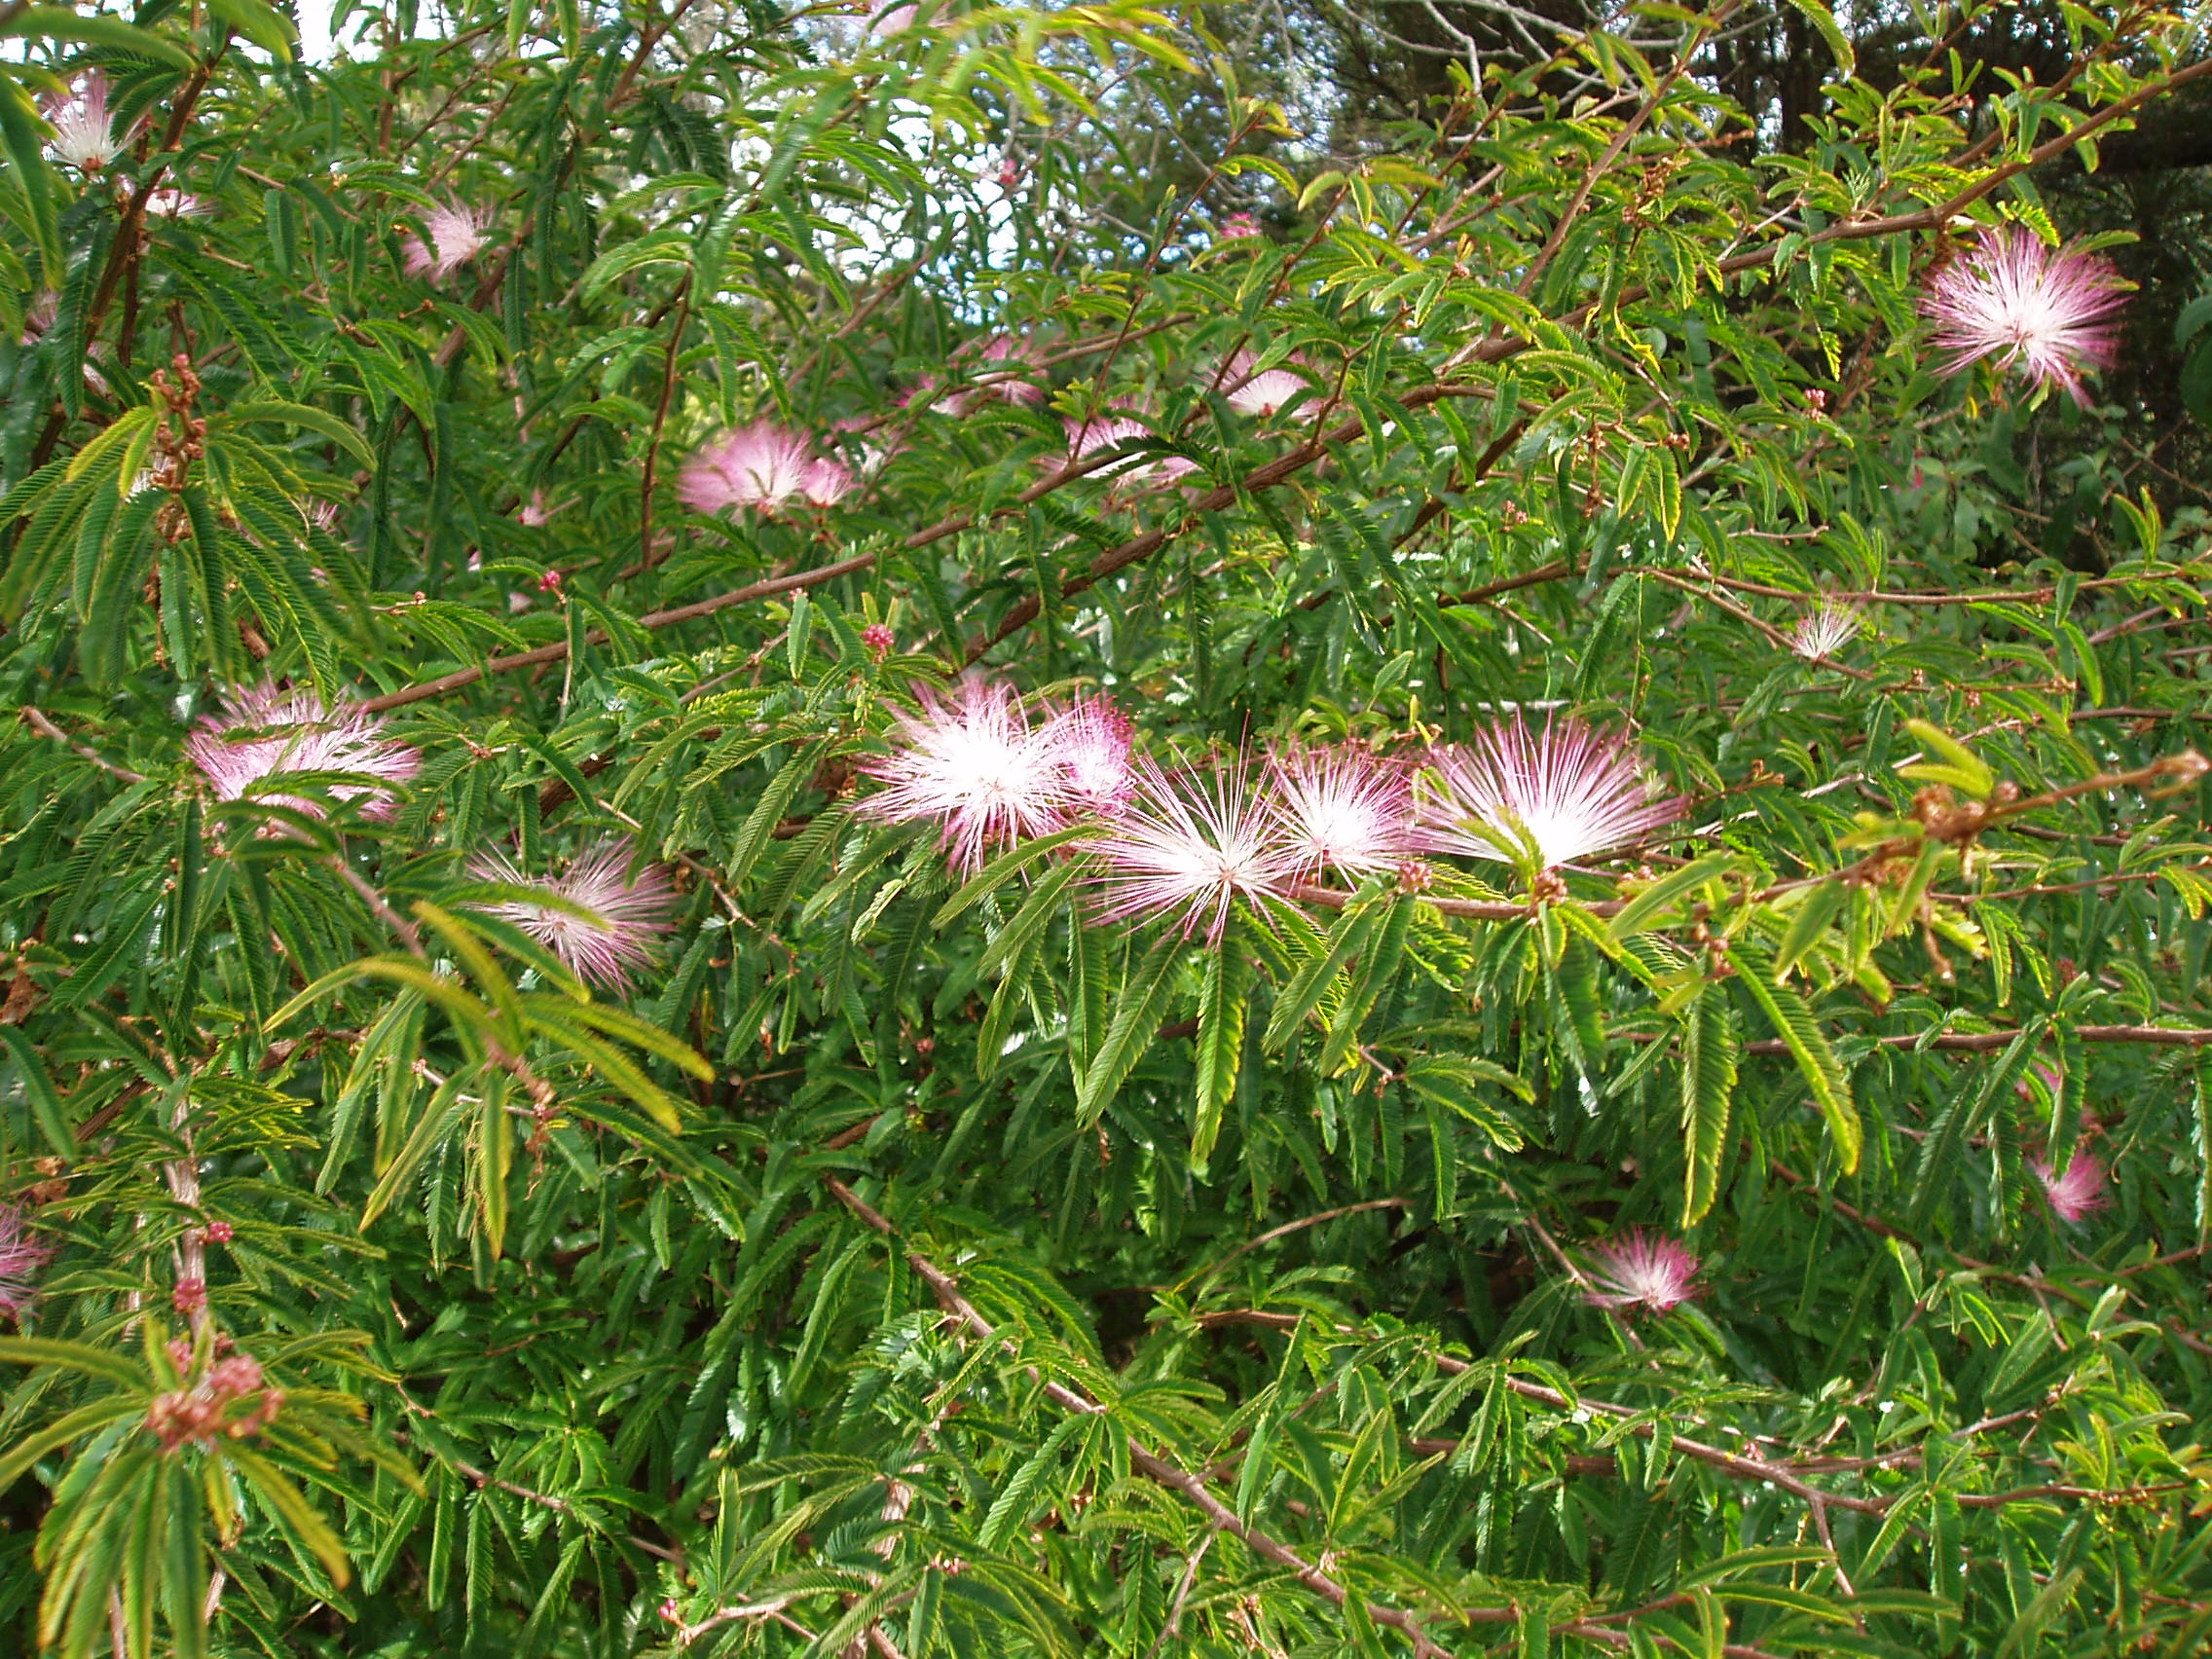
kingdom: Plantae
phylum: Tracheophyta
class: Magnoliopsida
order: Fabales
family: Fabaceae
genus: Calliandra
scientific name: Calliandra selloi
